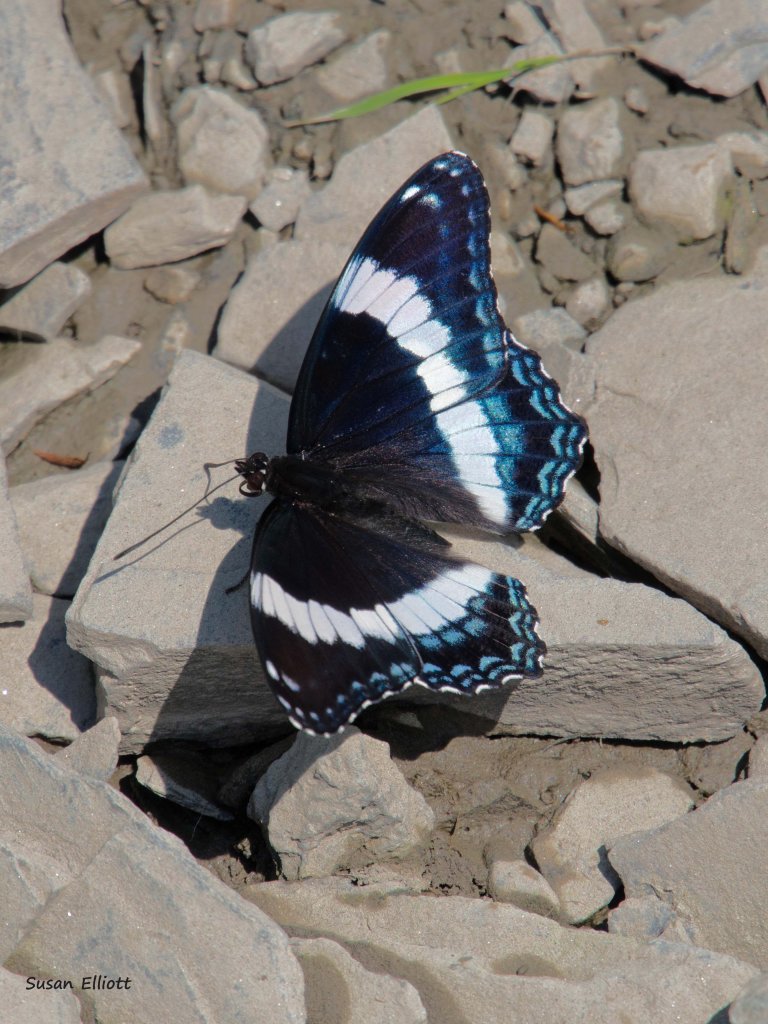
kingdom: Animalia
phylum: Arthropoda
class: Insecta
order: Lepidoptera
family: Nymphalidae
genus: Limenitis
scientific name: Limenitis arthemis
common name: Red-spotted Admiral
